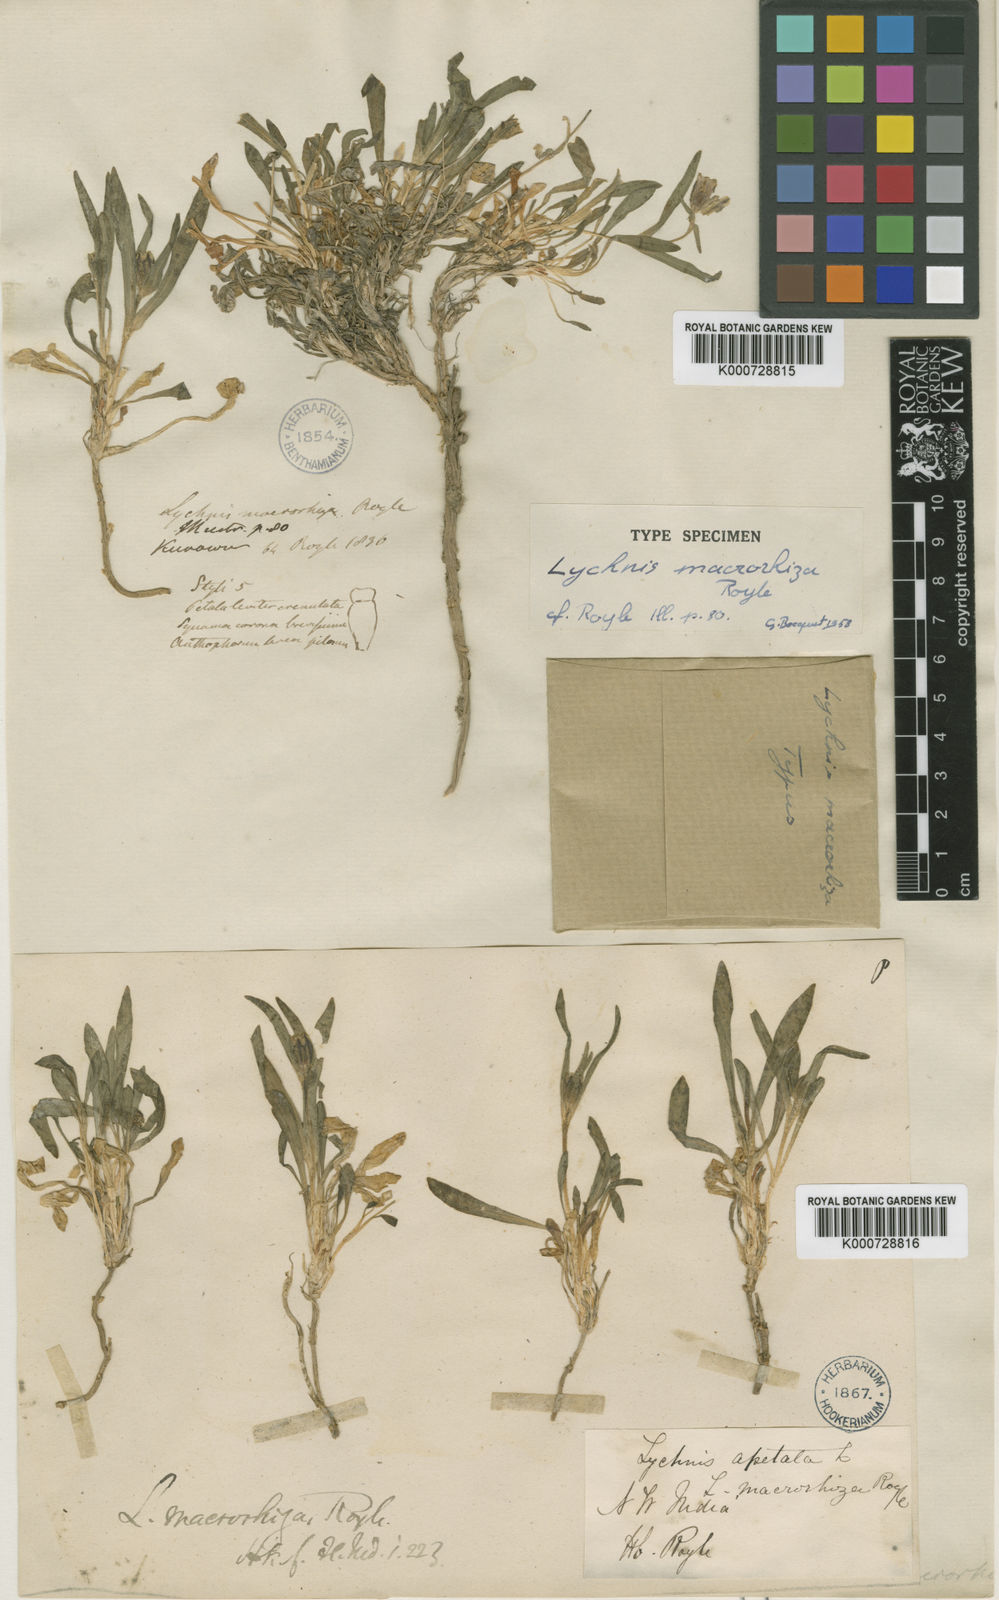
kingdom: Plantae
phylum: Tracheophyta
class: Magnoliopsida
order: Caryophyllales
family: Caryophyllaceae
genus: Silene
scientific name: Silene himalayensis
